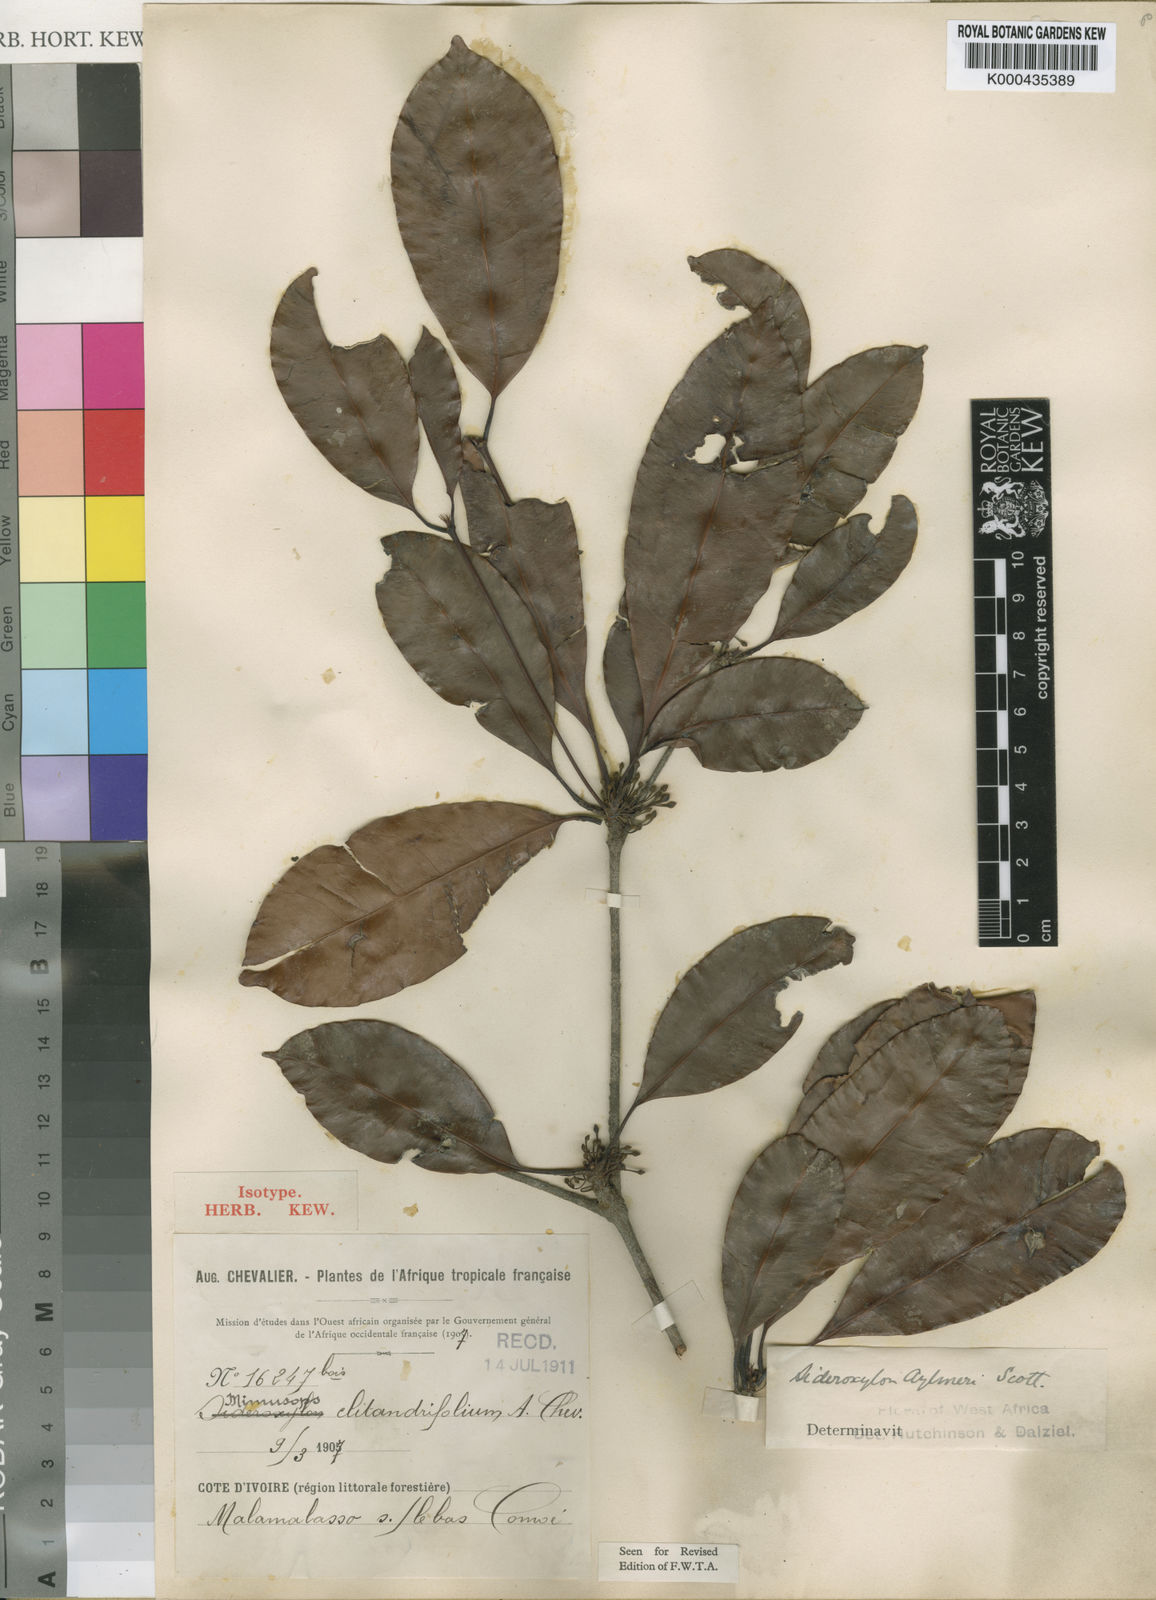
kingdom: Plantae
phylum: Tracheophyta
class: Magnoliopsida
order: Ericales
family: Sapotaceae
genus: Neolemonniera
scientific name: Neolemonniera clitandrifolia
